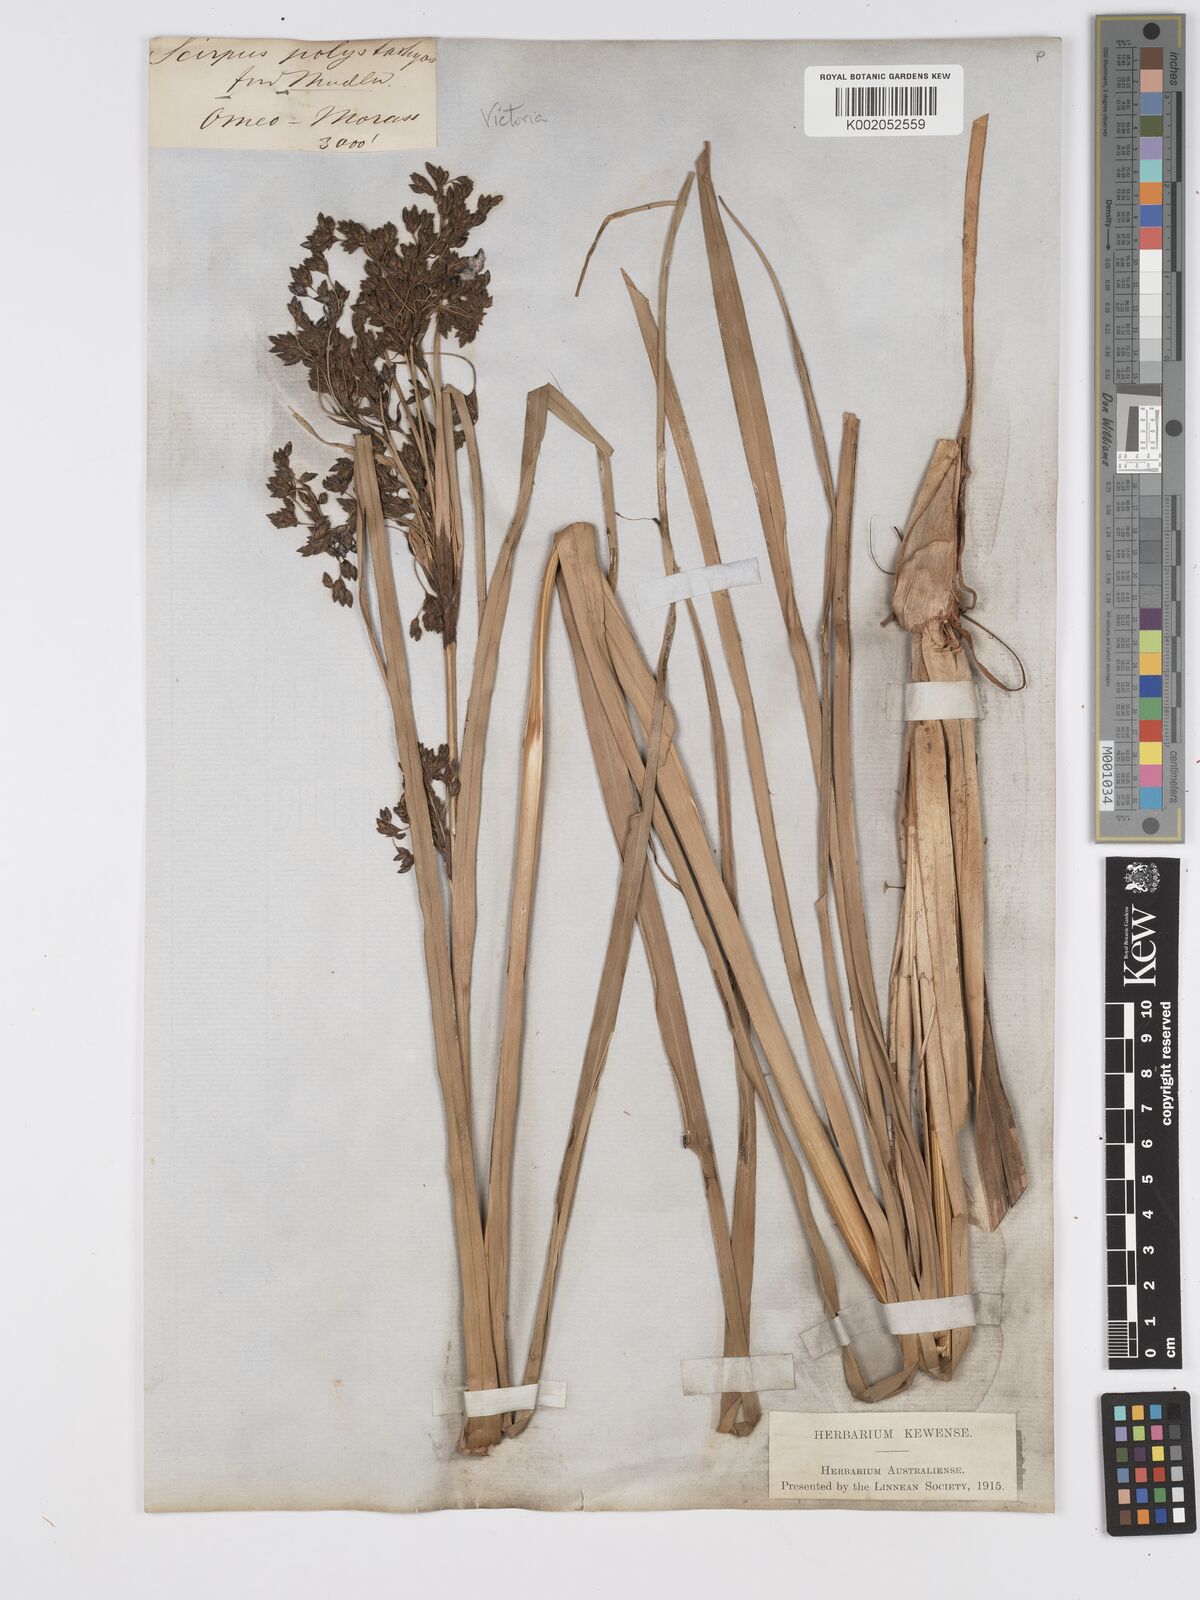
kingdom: Plantae
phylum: Tracheophyta
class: Liliopsida
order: Poales
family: Cyperaceae
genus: Scirpus
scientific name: Scirpus polystachyus
